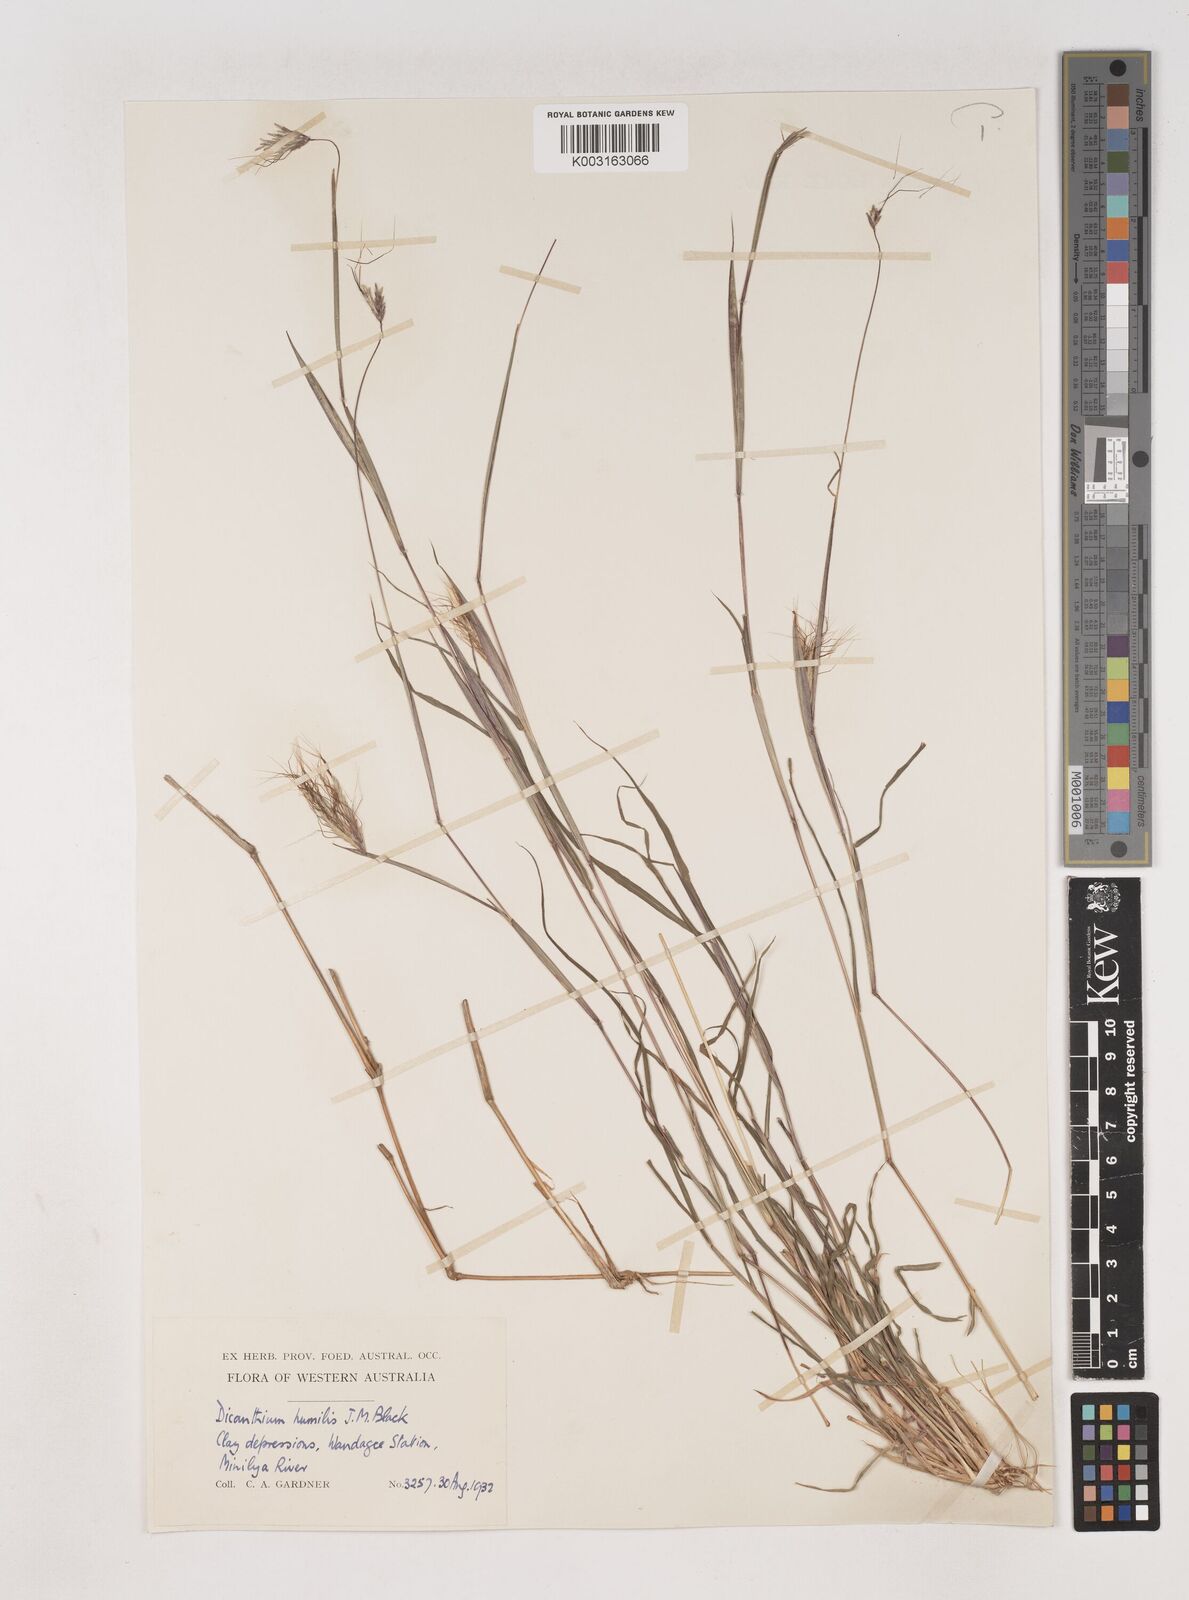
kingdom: Plantae
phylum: Tracheophyta
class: Liliopsida
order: Poales
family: Poaceae
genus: Dichanthium
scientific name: Dichanthium sericeum
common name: Silky bluestem
